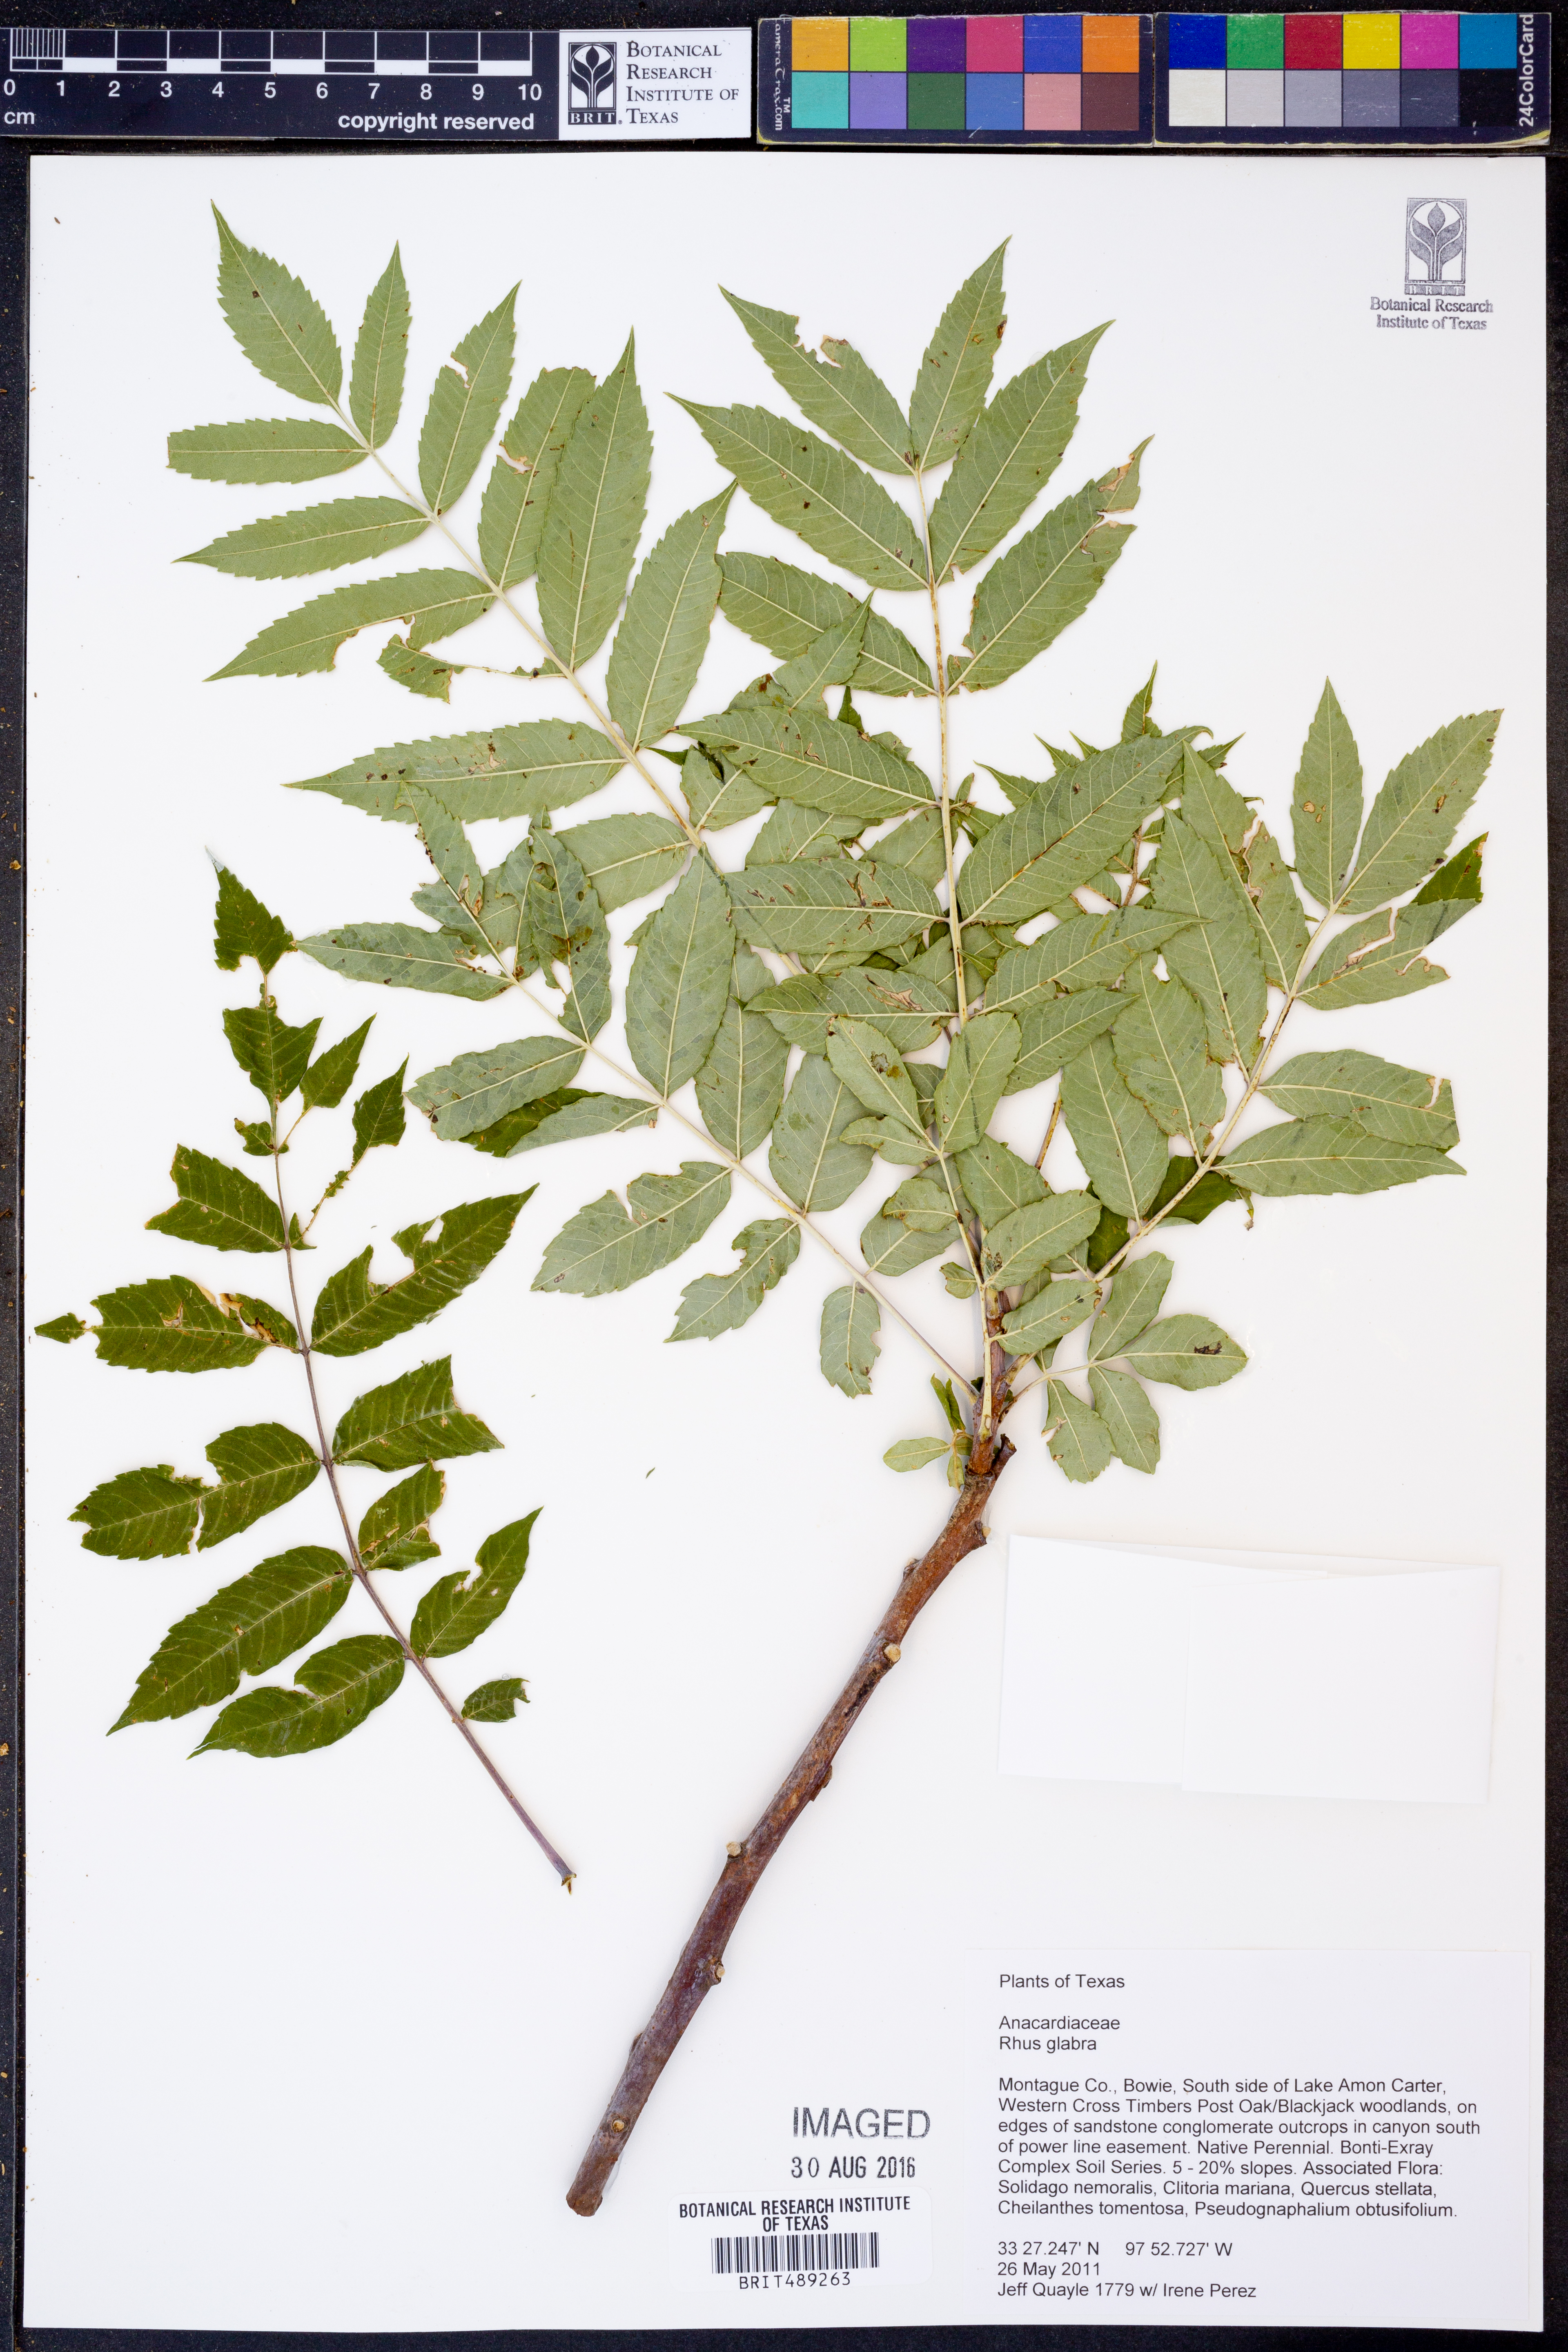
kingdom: Plantae
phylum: Tracheophyta
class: Magnoliopsida
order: Sapindales
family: Anacardiaceae
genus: Rhus
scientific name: Rhus glabra
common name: Scarlet sumac
